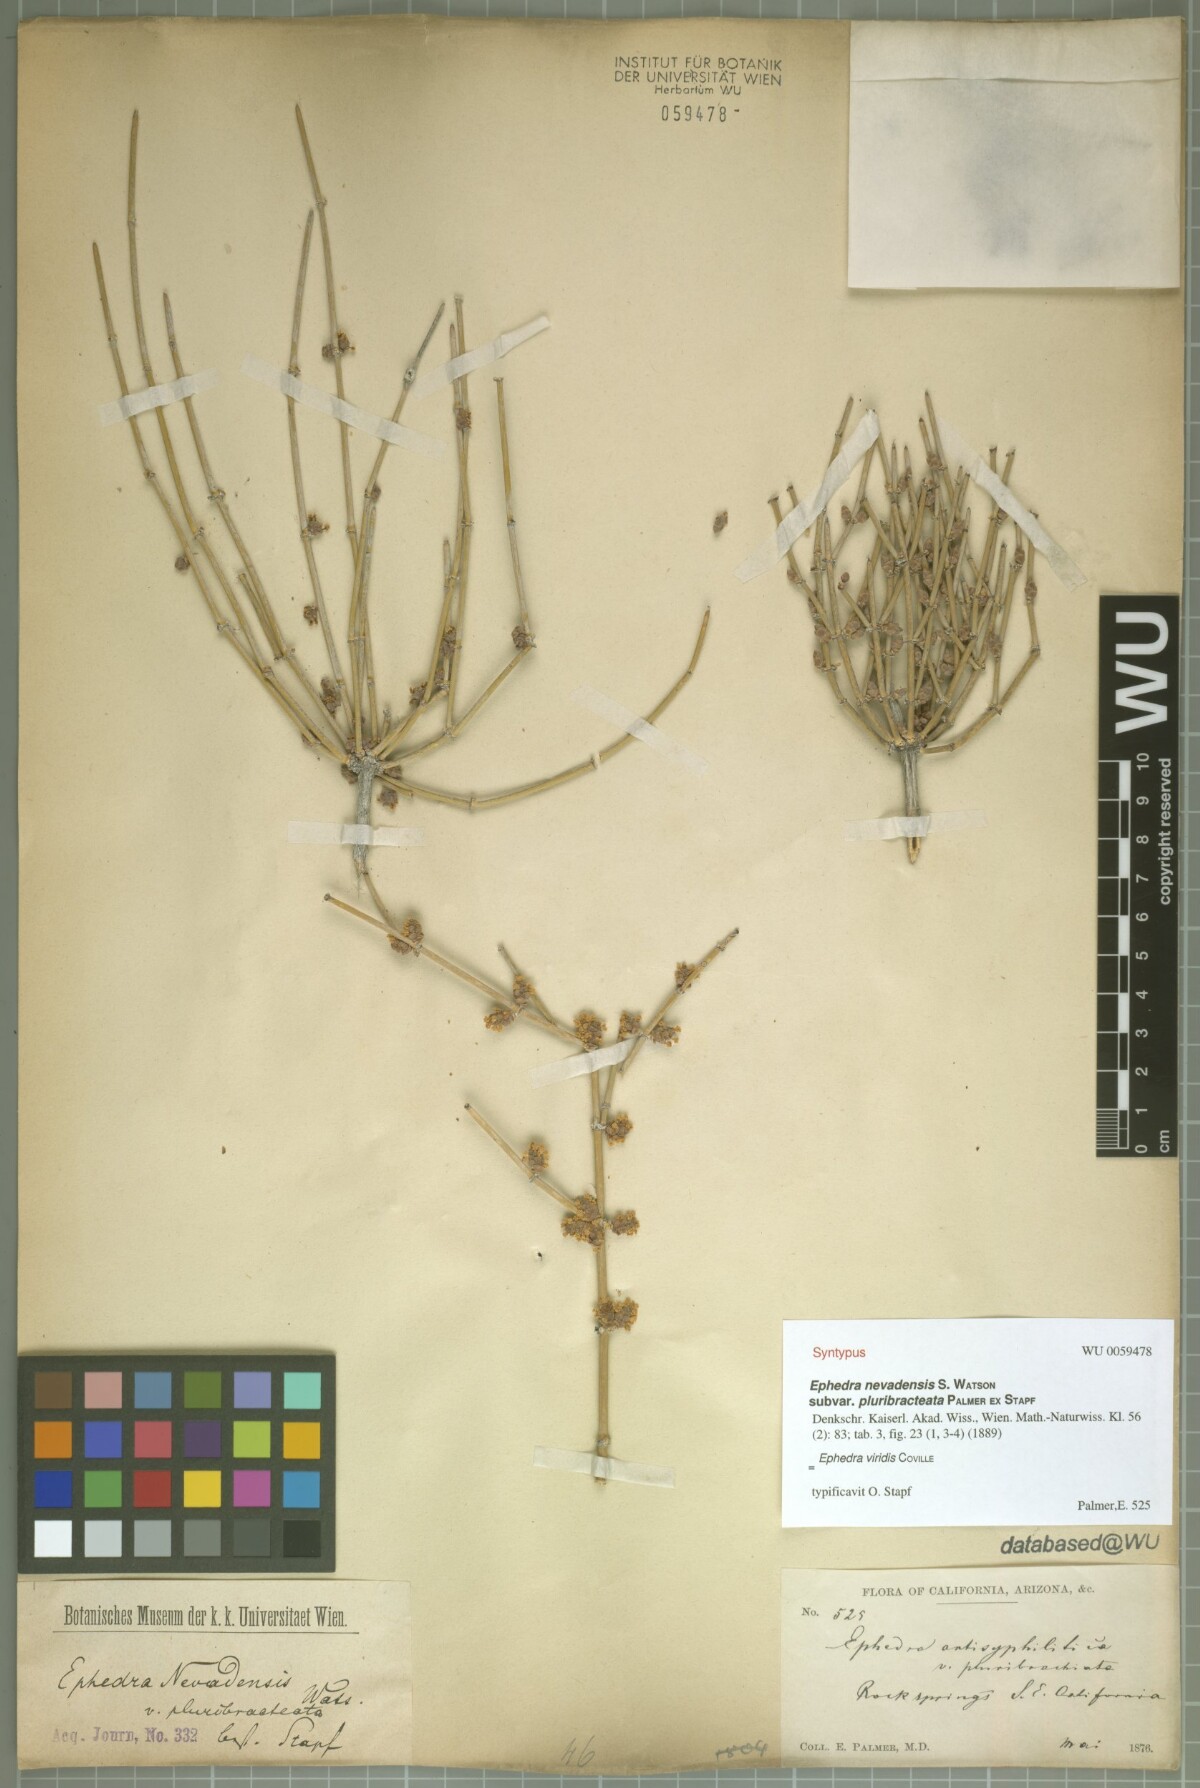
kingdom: Plantae
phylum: Tracheophyta
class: Gnetopsida
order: Ephedrales
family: Ephedraceae
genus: Ephedra
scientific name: Ephedra viridis
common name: Green ephedra
